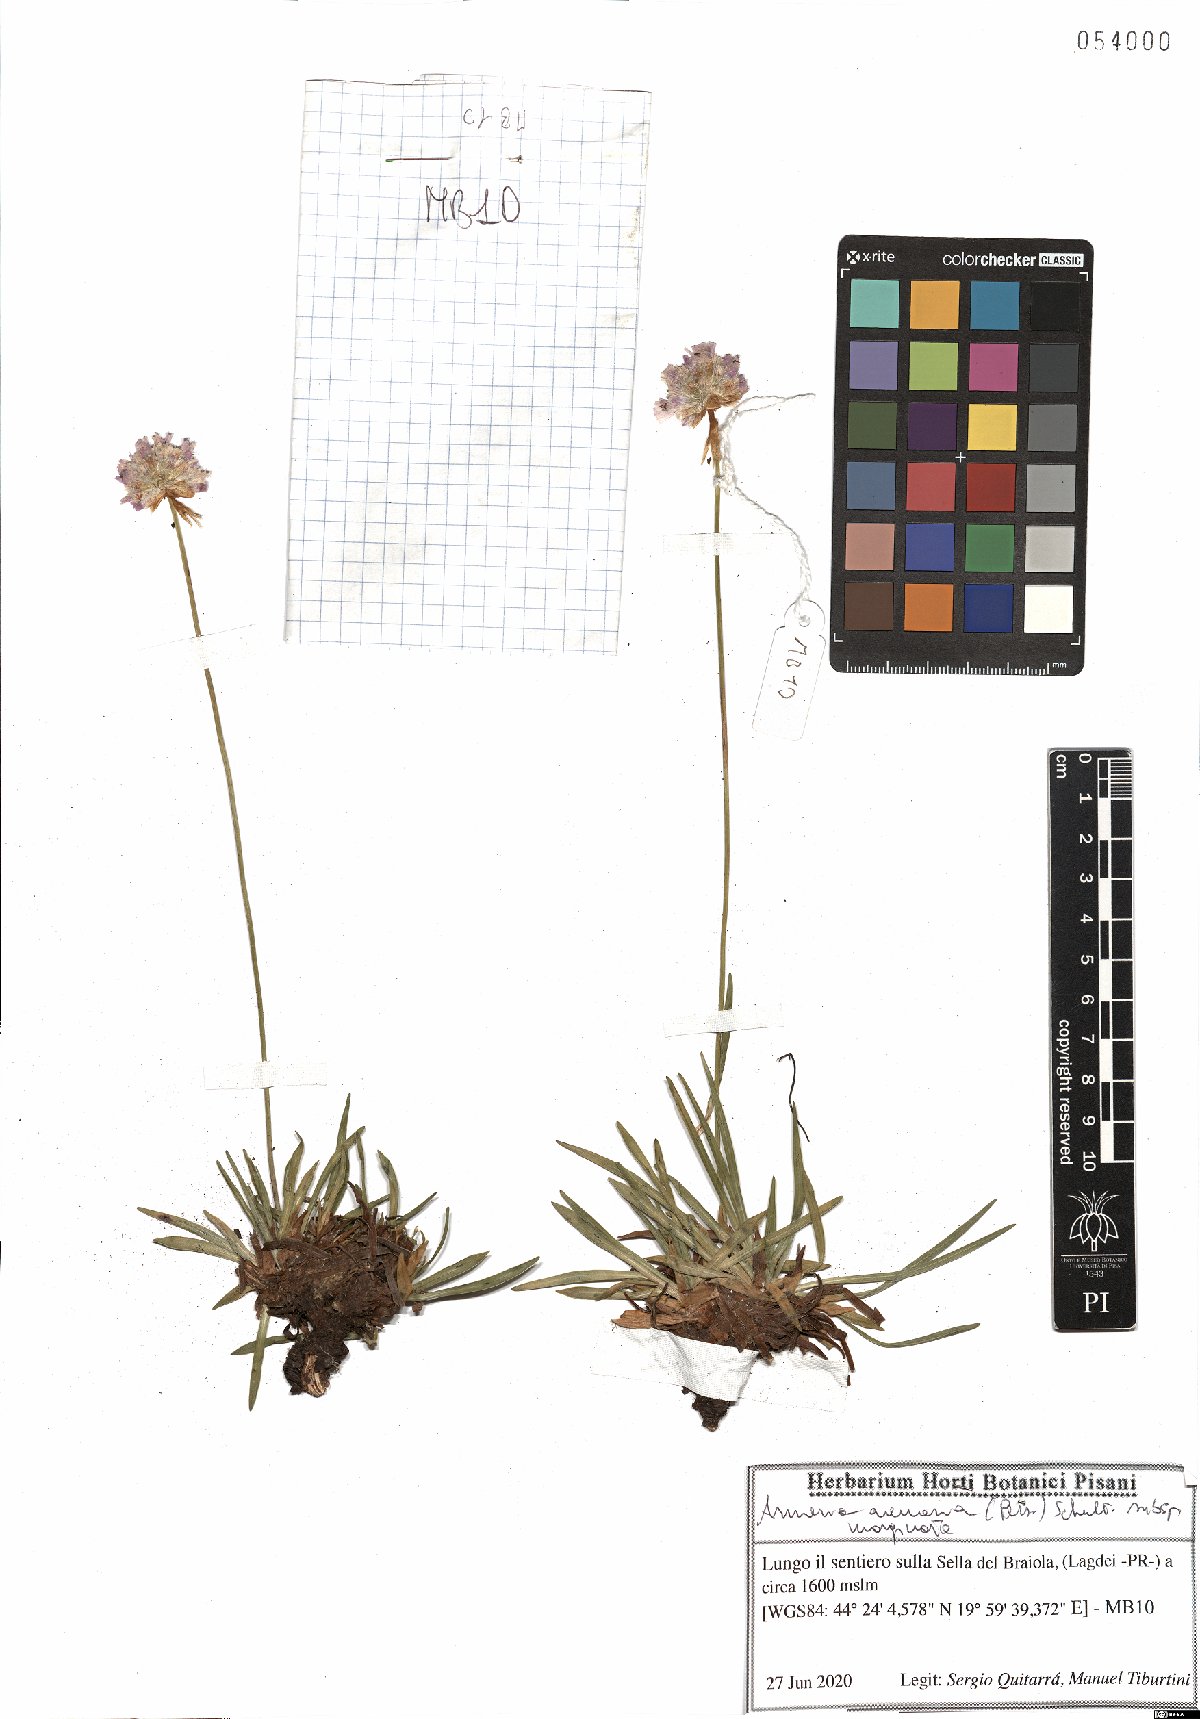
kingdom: Plantae
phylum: Tracheophyta
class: Magnoliopsida
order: Caryophyllales
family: Plumbaginaceae
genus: Armeria
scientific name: Armeria arenaria
